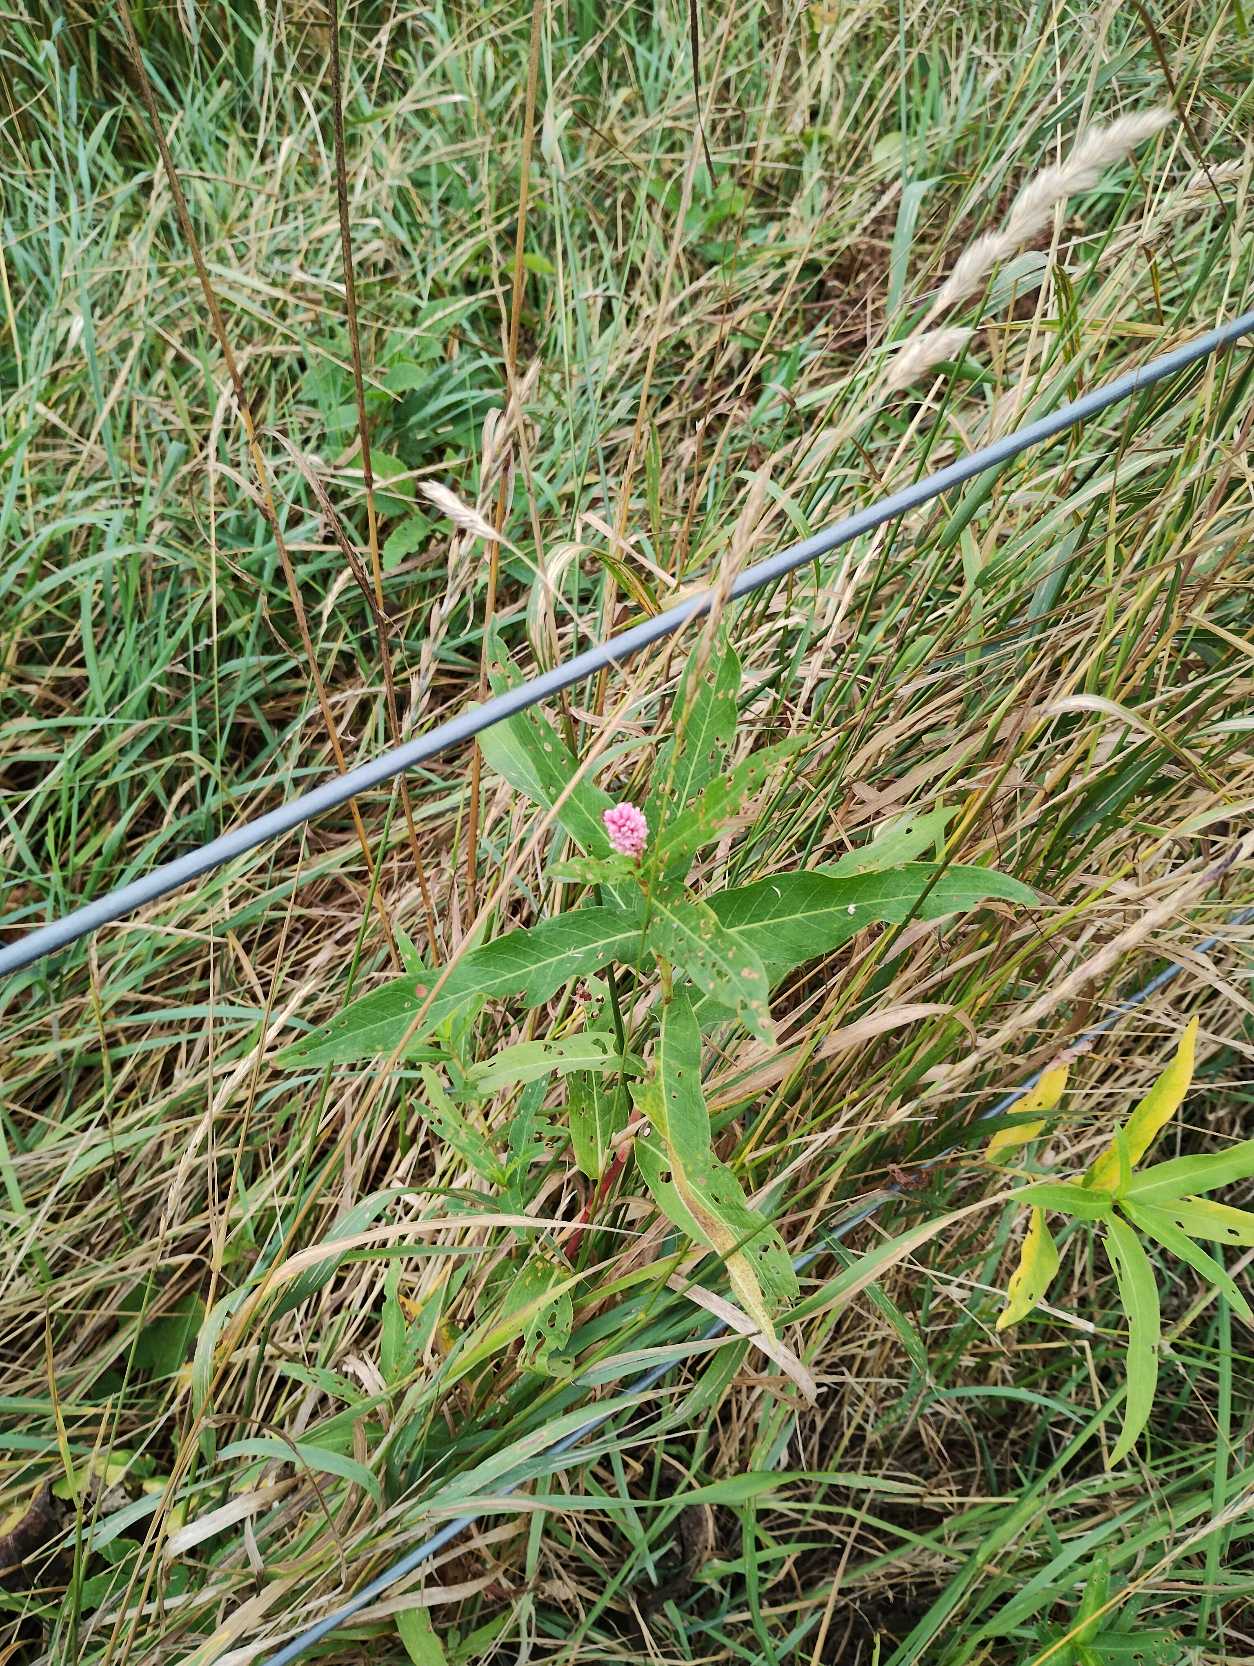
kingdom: Plantae
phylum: Tracheophyta
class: Magnoliopsida
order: Caryophyllales
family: Polygonaceae
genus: Persicaria
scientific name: Persicaria amphibia
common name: Vand-pileurt
